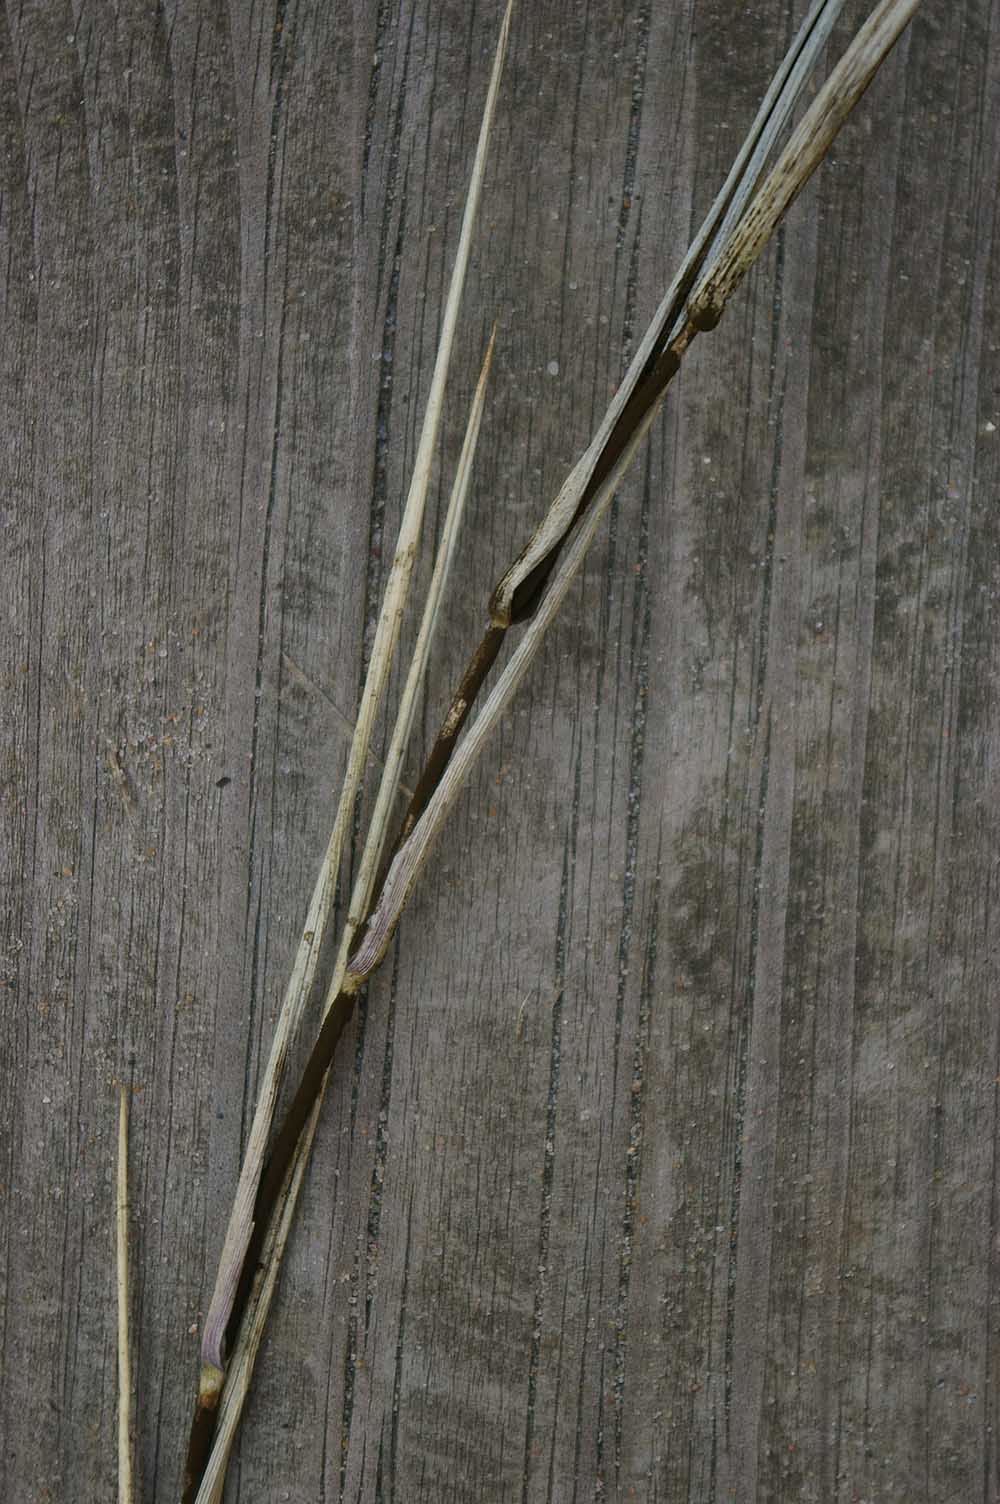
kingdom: Fungi
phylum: Basidiomycota
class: Ustilaginomycetes
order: Ustilaginales
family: Ustilaginaceae
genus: Tranzscheliella
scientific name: Tranzscheliella hypodytes
